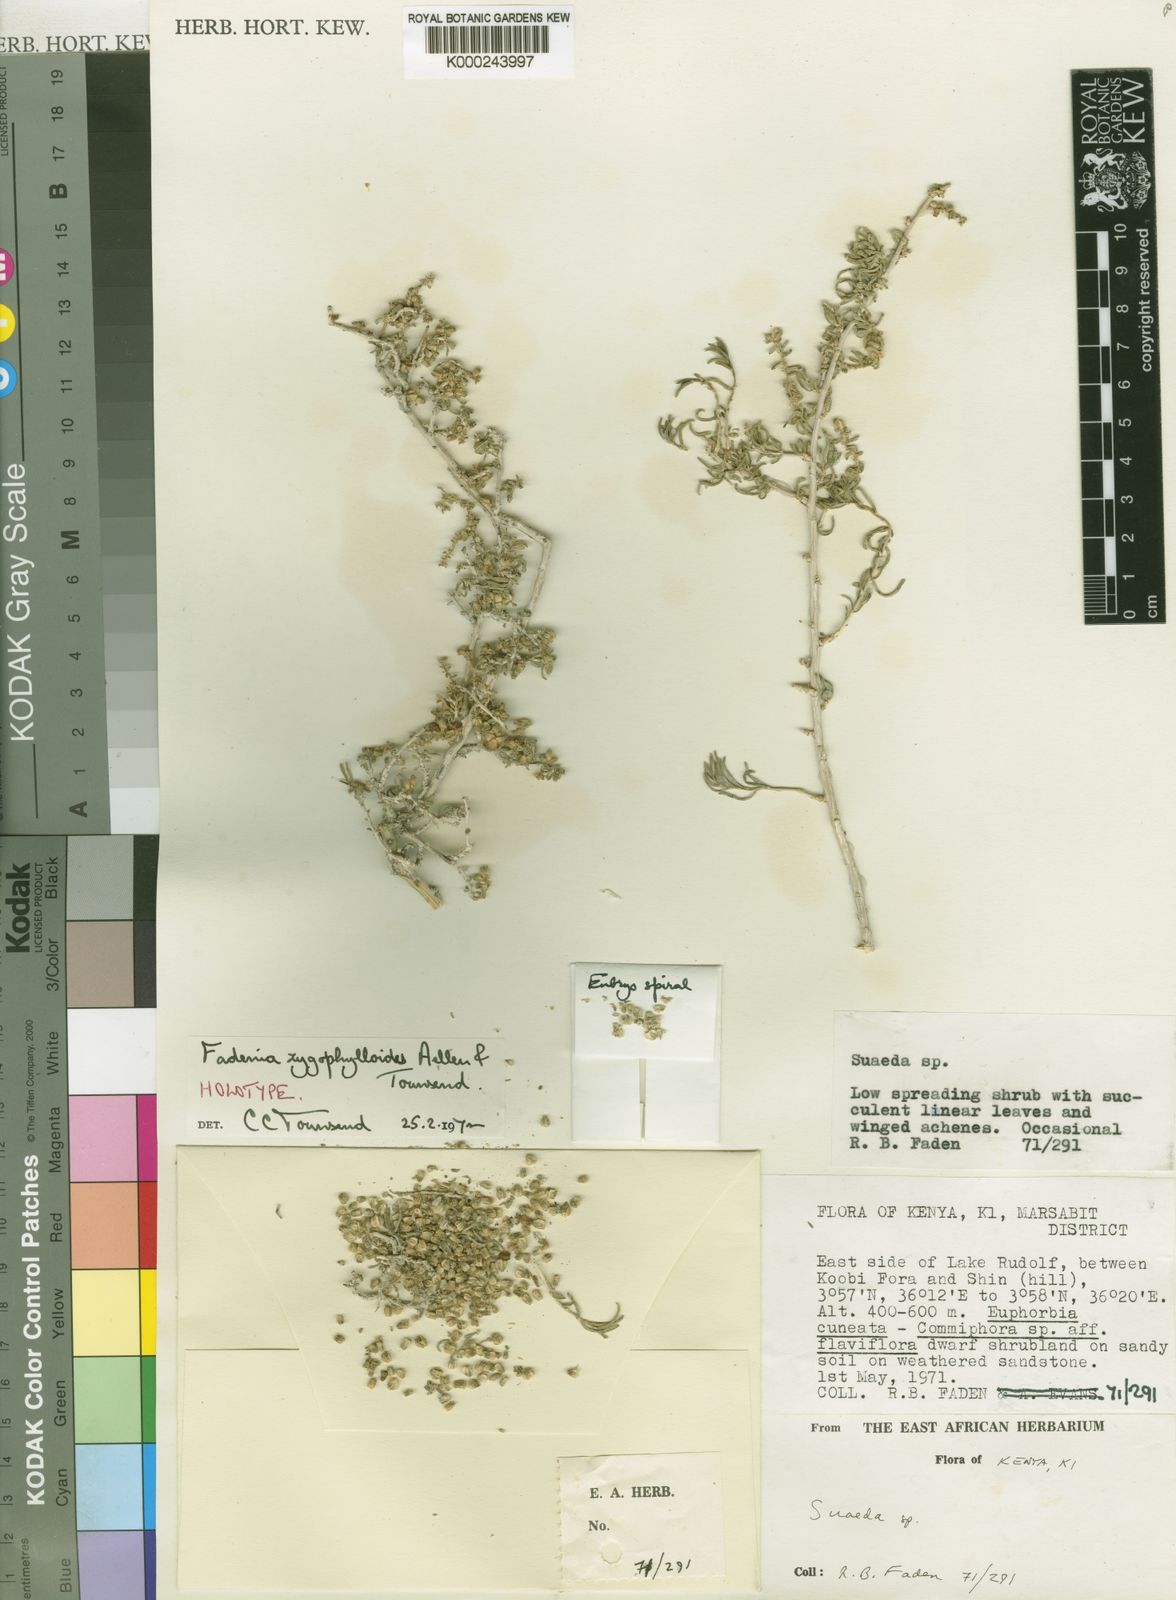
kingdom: Plantae
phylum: Tracheophyta
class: Magnoliopsida
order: Caryophyllales
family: Amaranthaceae
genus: Fadenia
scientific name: Fadenia zygophylloides
